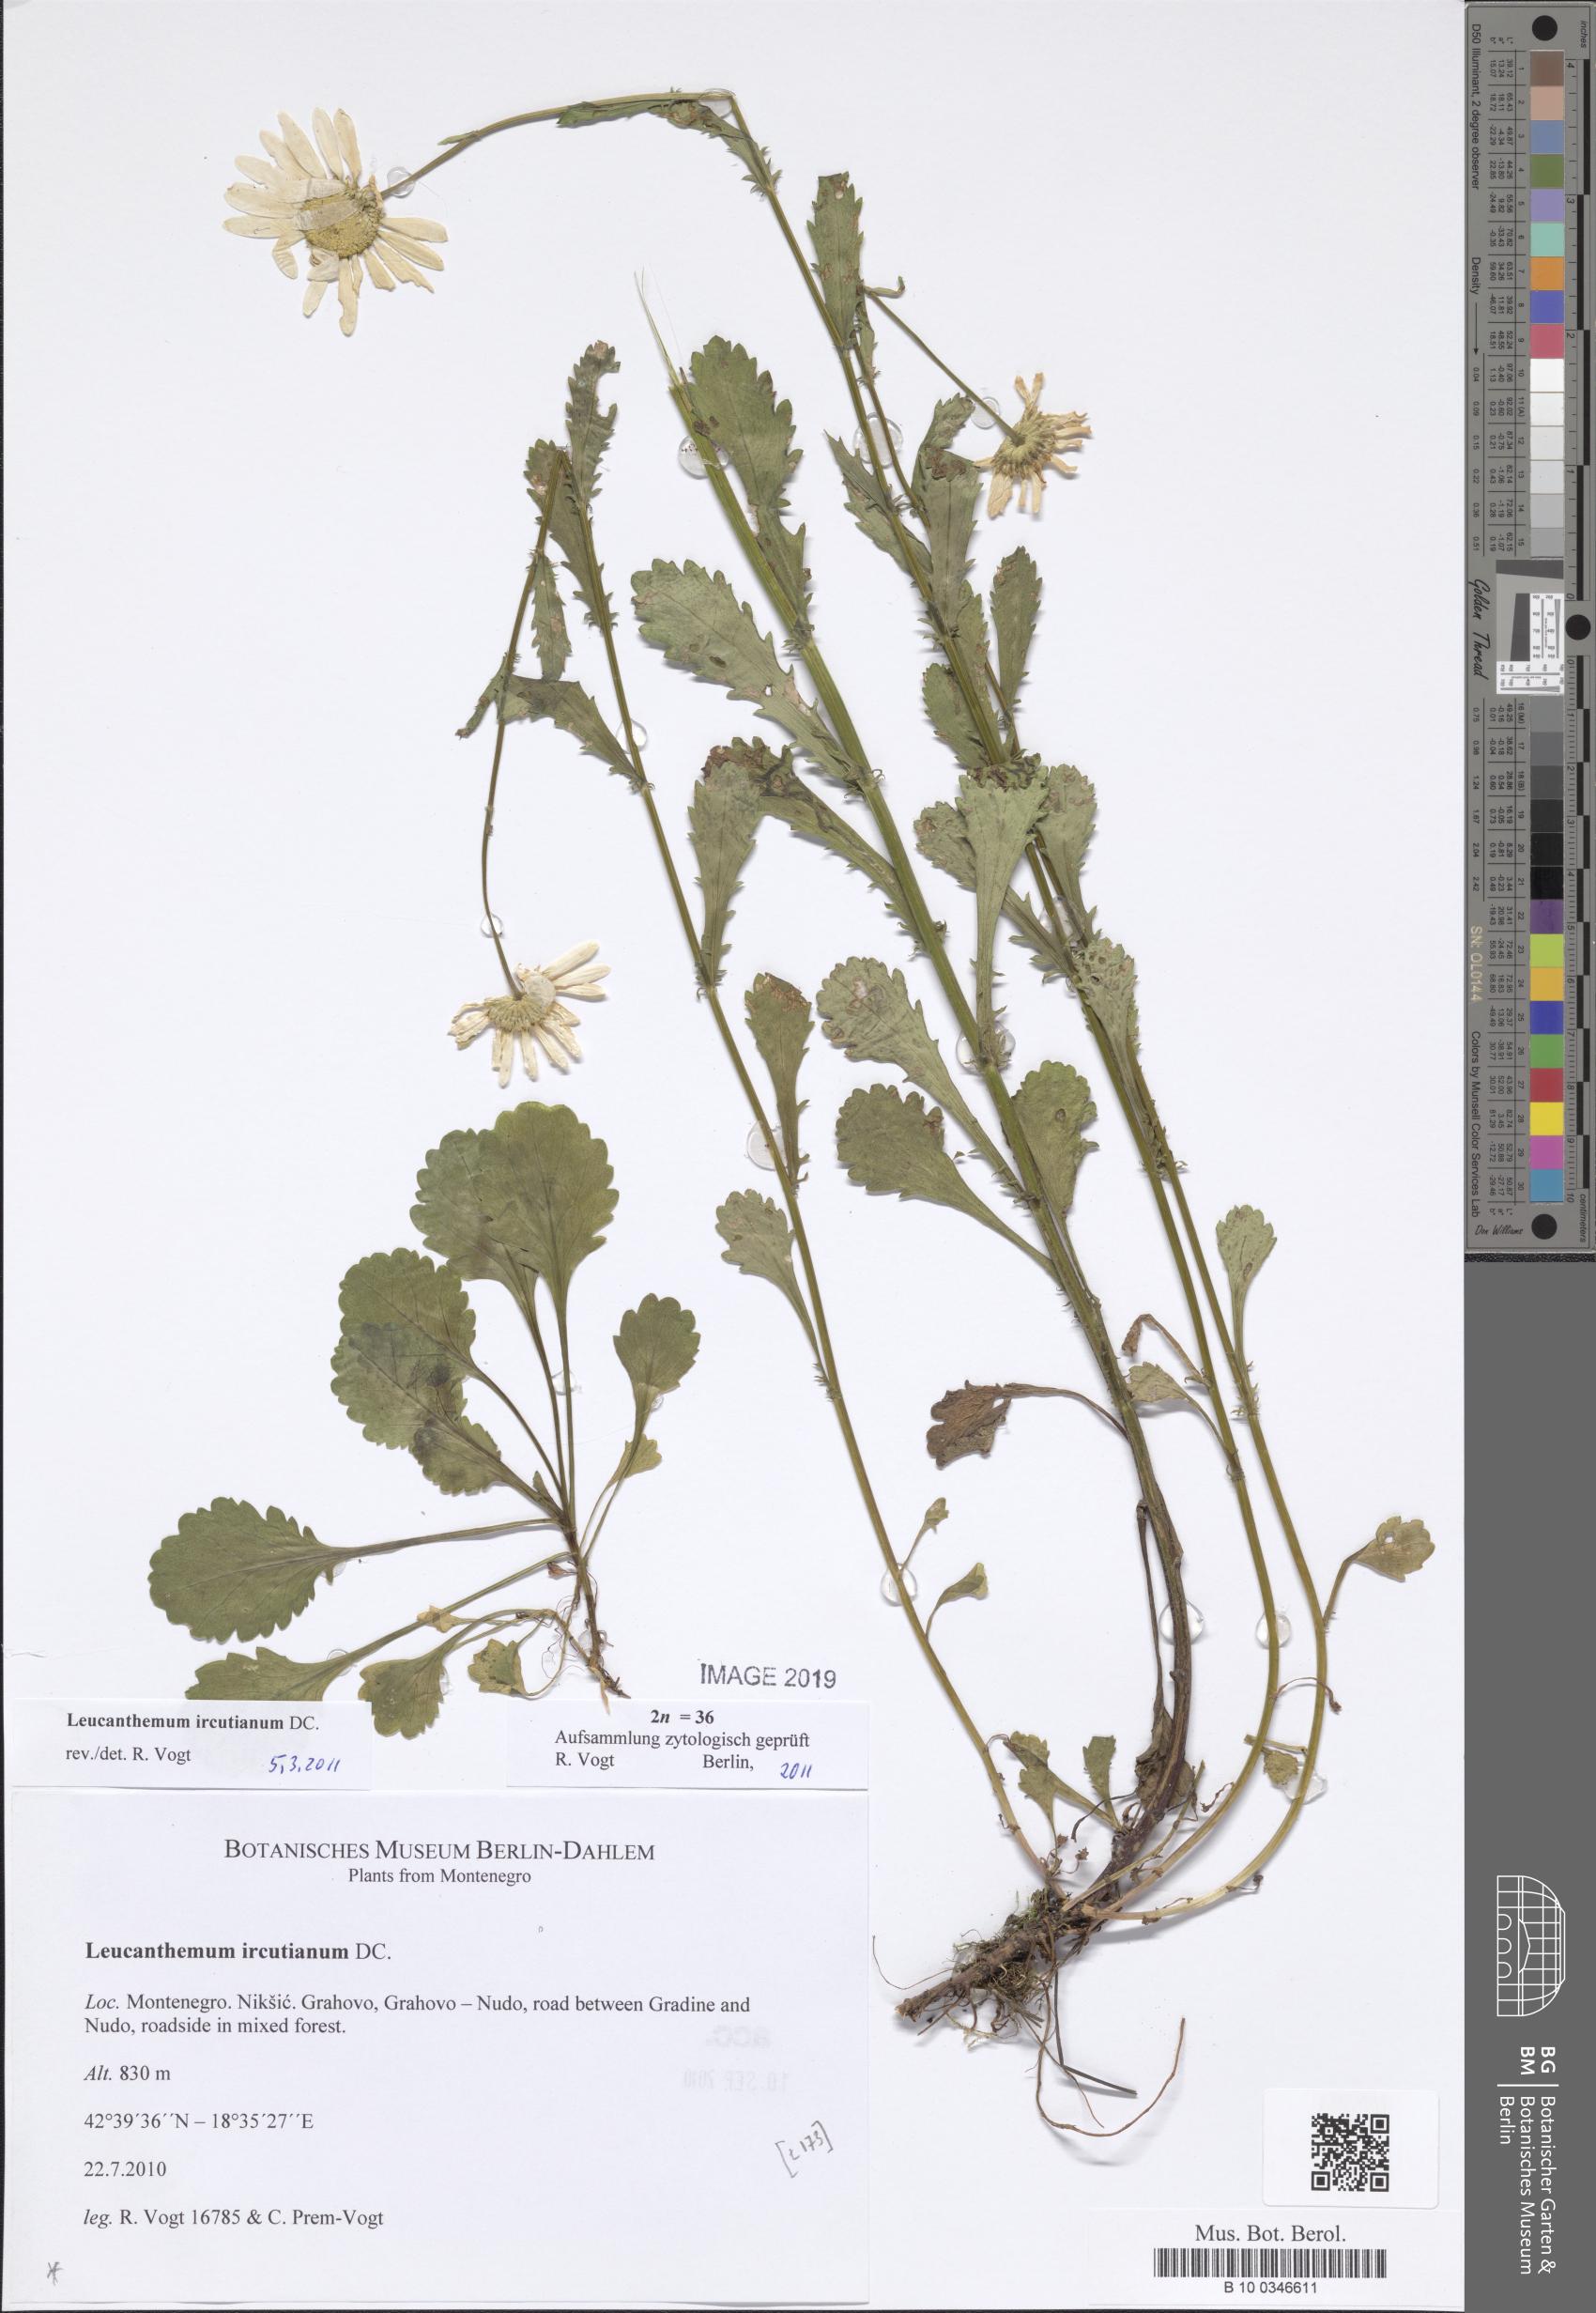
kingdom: Plantae
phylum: Tracheophyta
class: Magnoliopsida
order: Asterales
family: Asteraceae
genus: Leucanthemum
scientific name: Leucanthemum ircutianum
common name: Daisy
